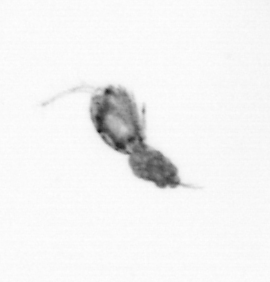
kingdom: Animalia
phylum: Arthropoda
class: Copepoda
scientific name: Copepoda
